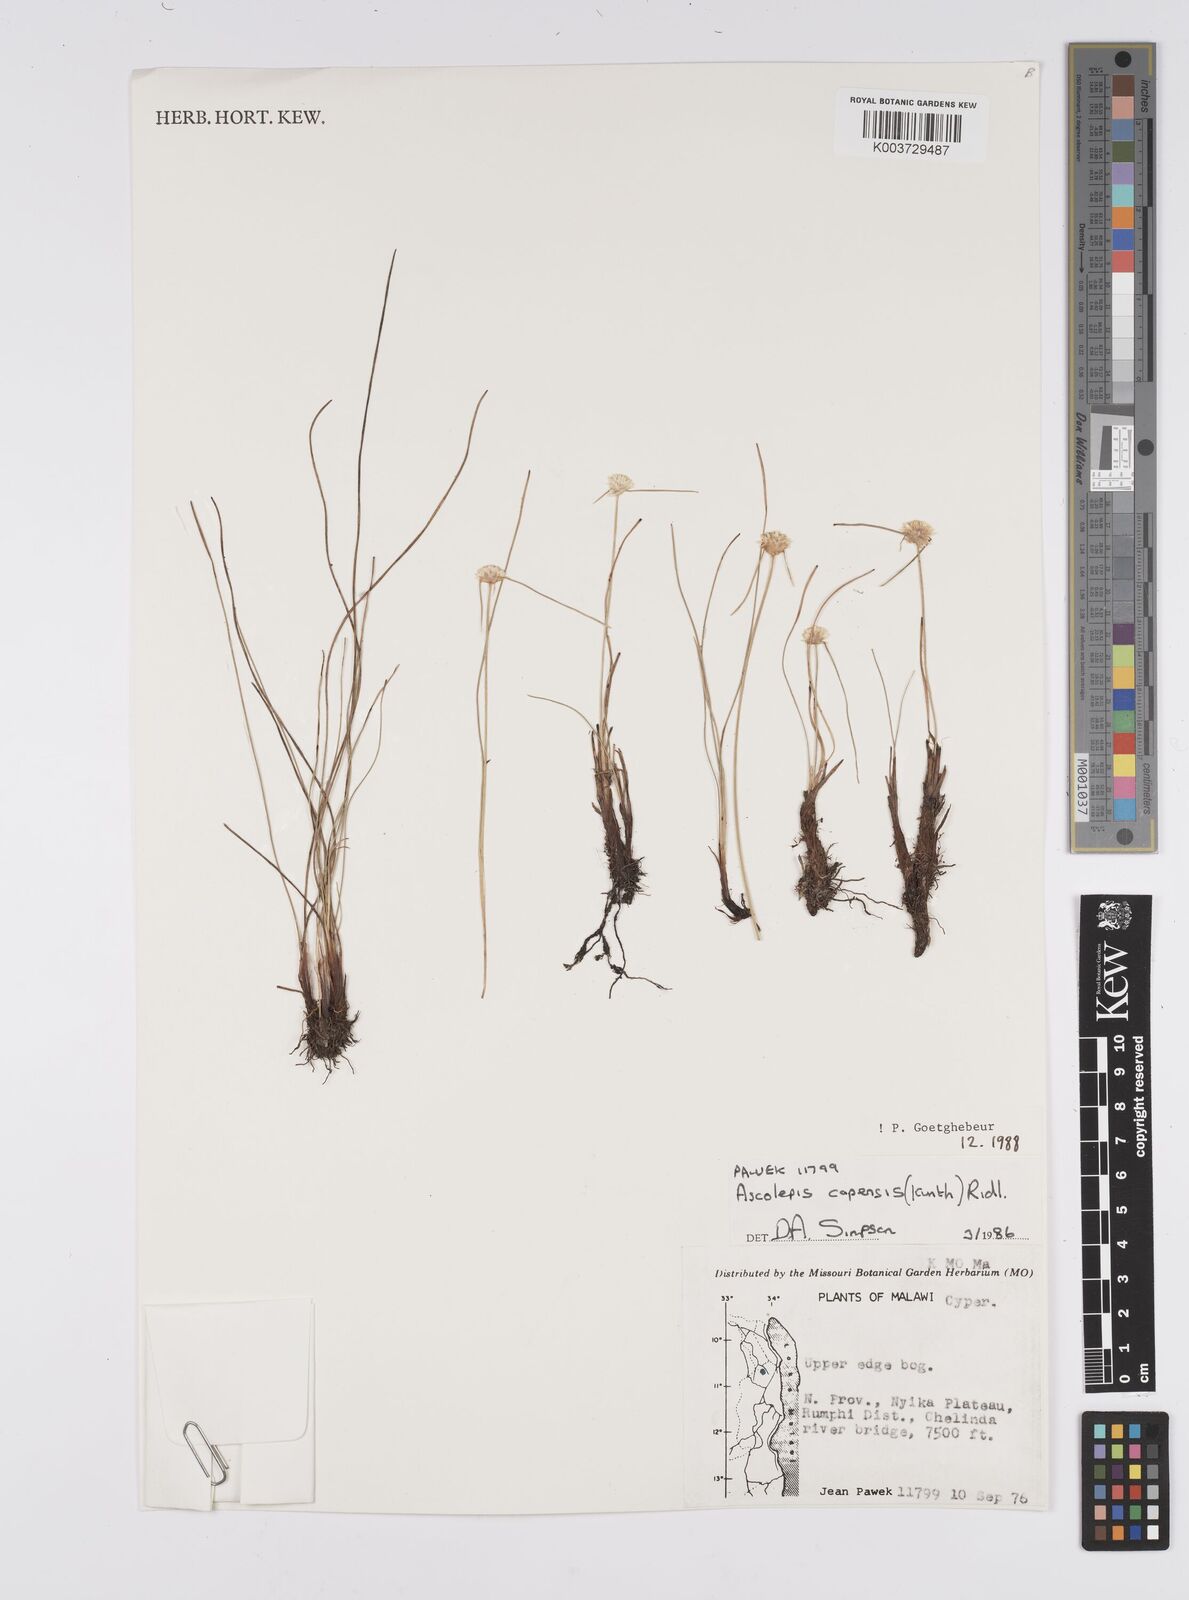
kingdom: Plantae
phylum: Tracheophyta
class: Liliopsida
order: Poales
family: Cyperaceae
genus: Cyperus
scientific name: Cyperus
